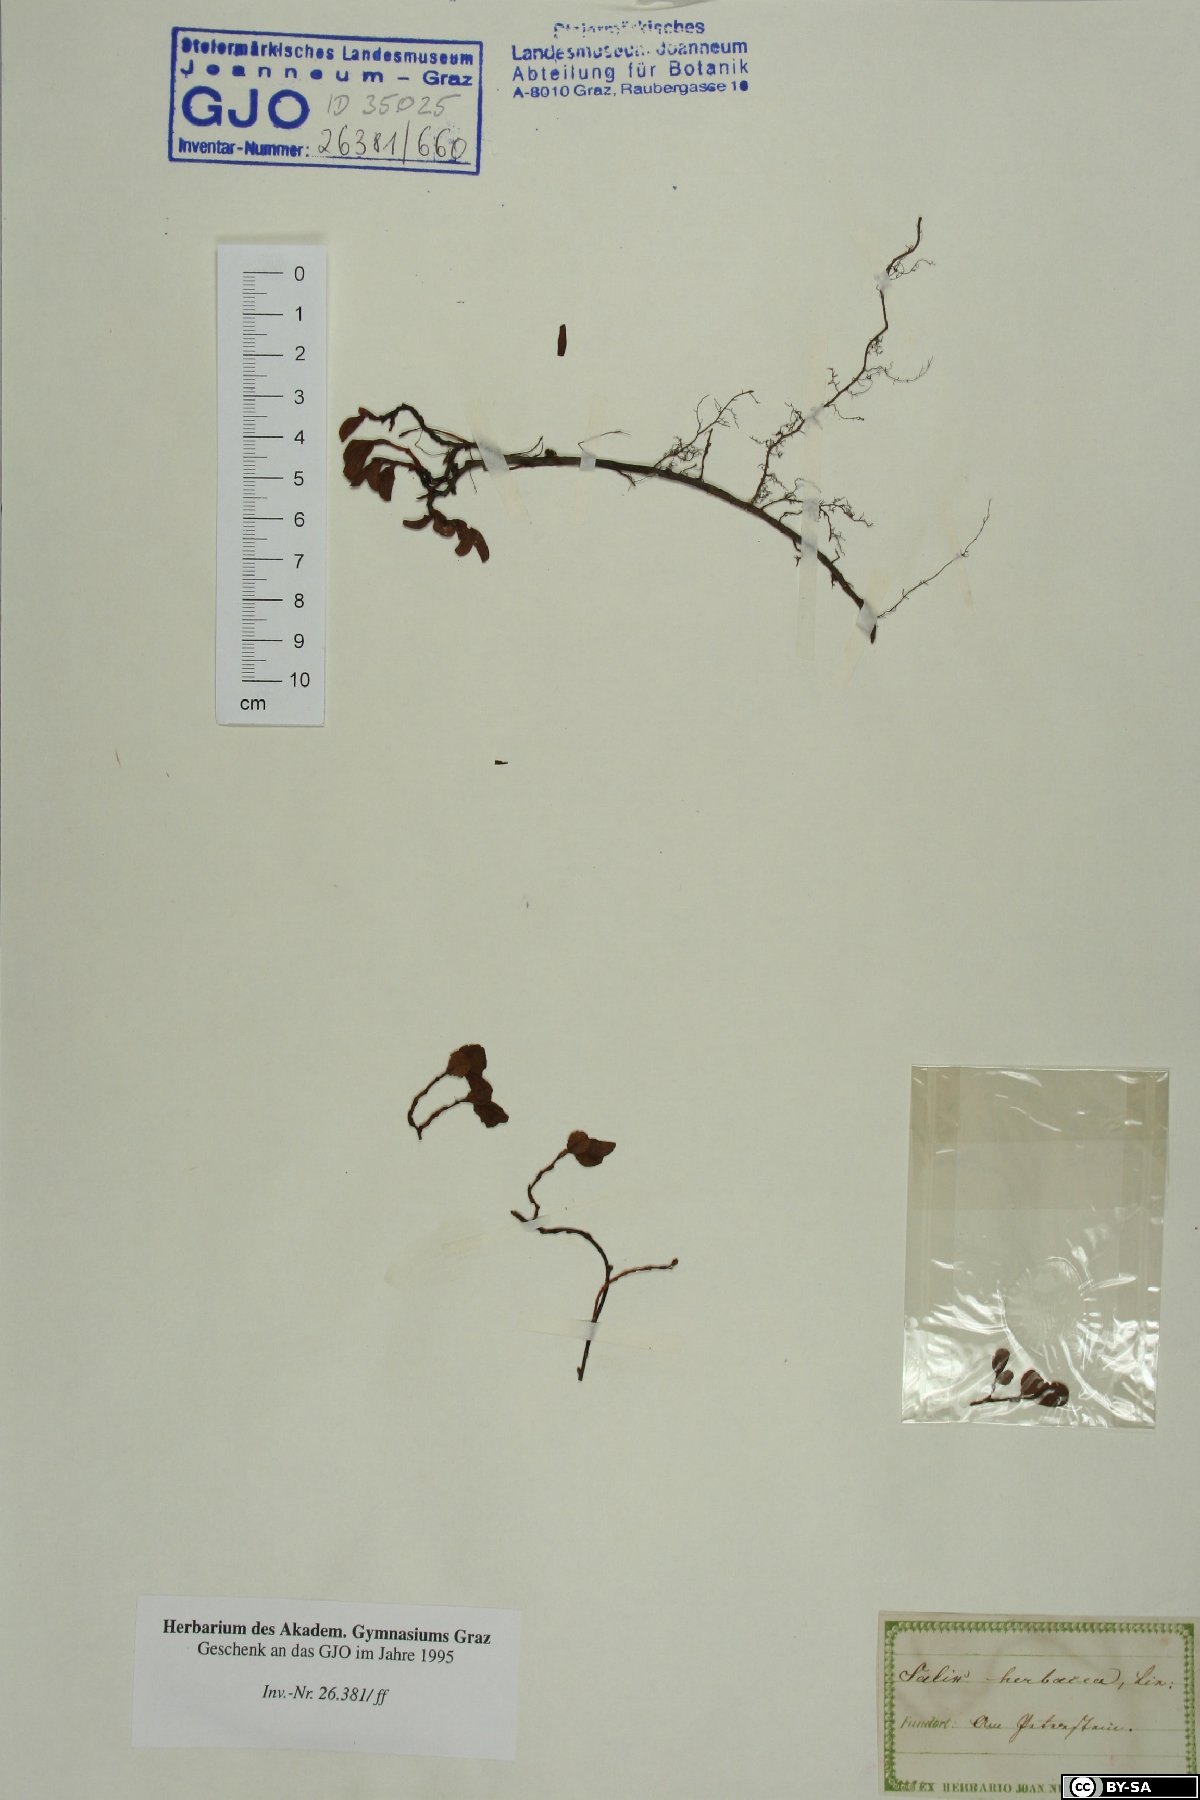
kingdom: Plantae
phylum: Tracheophyta
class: Magnoliopsida
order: Malpighiales
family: Salicaceae
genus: Salix
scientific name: Salix herbacea
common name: Dwarf willow
